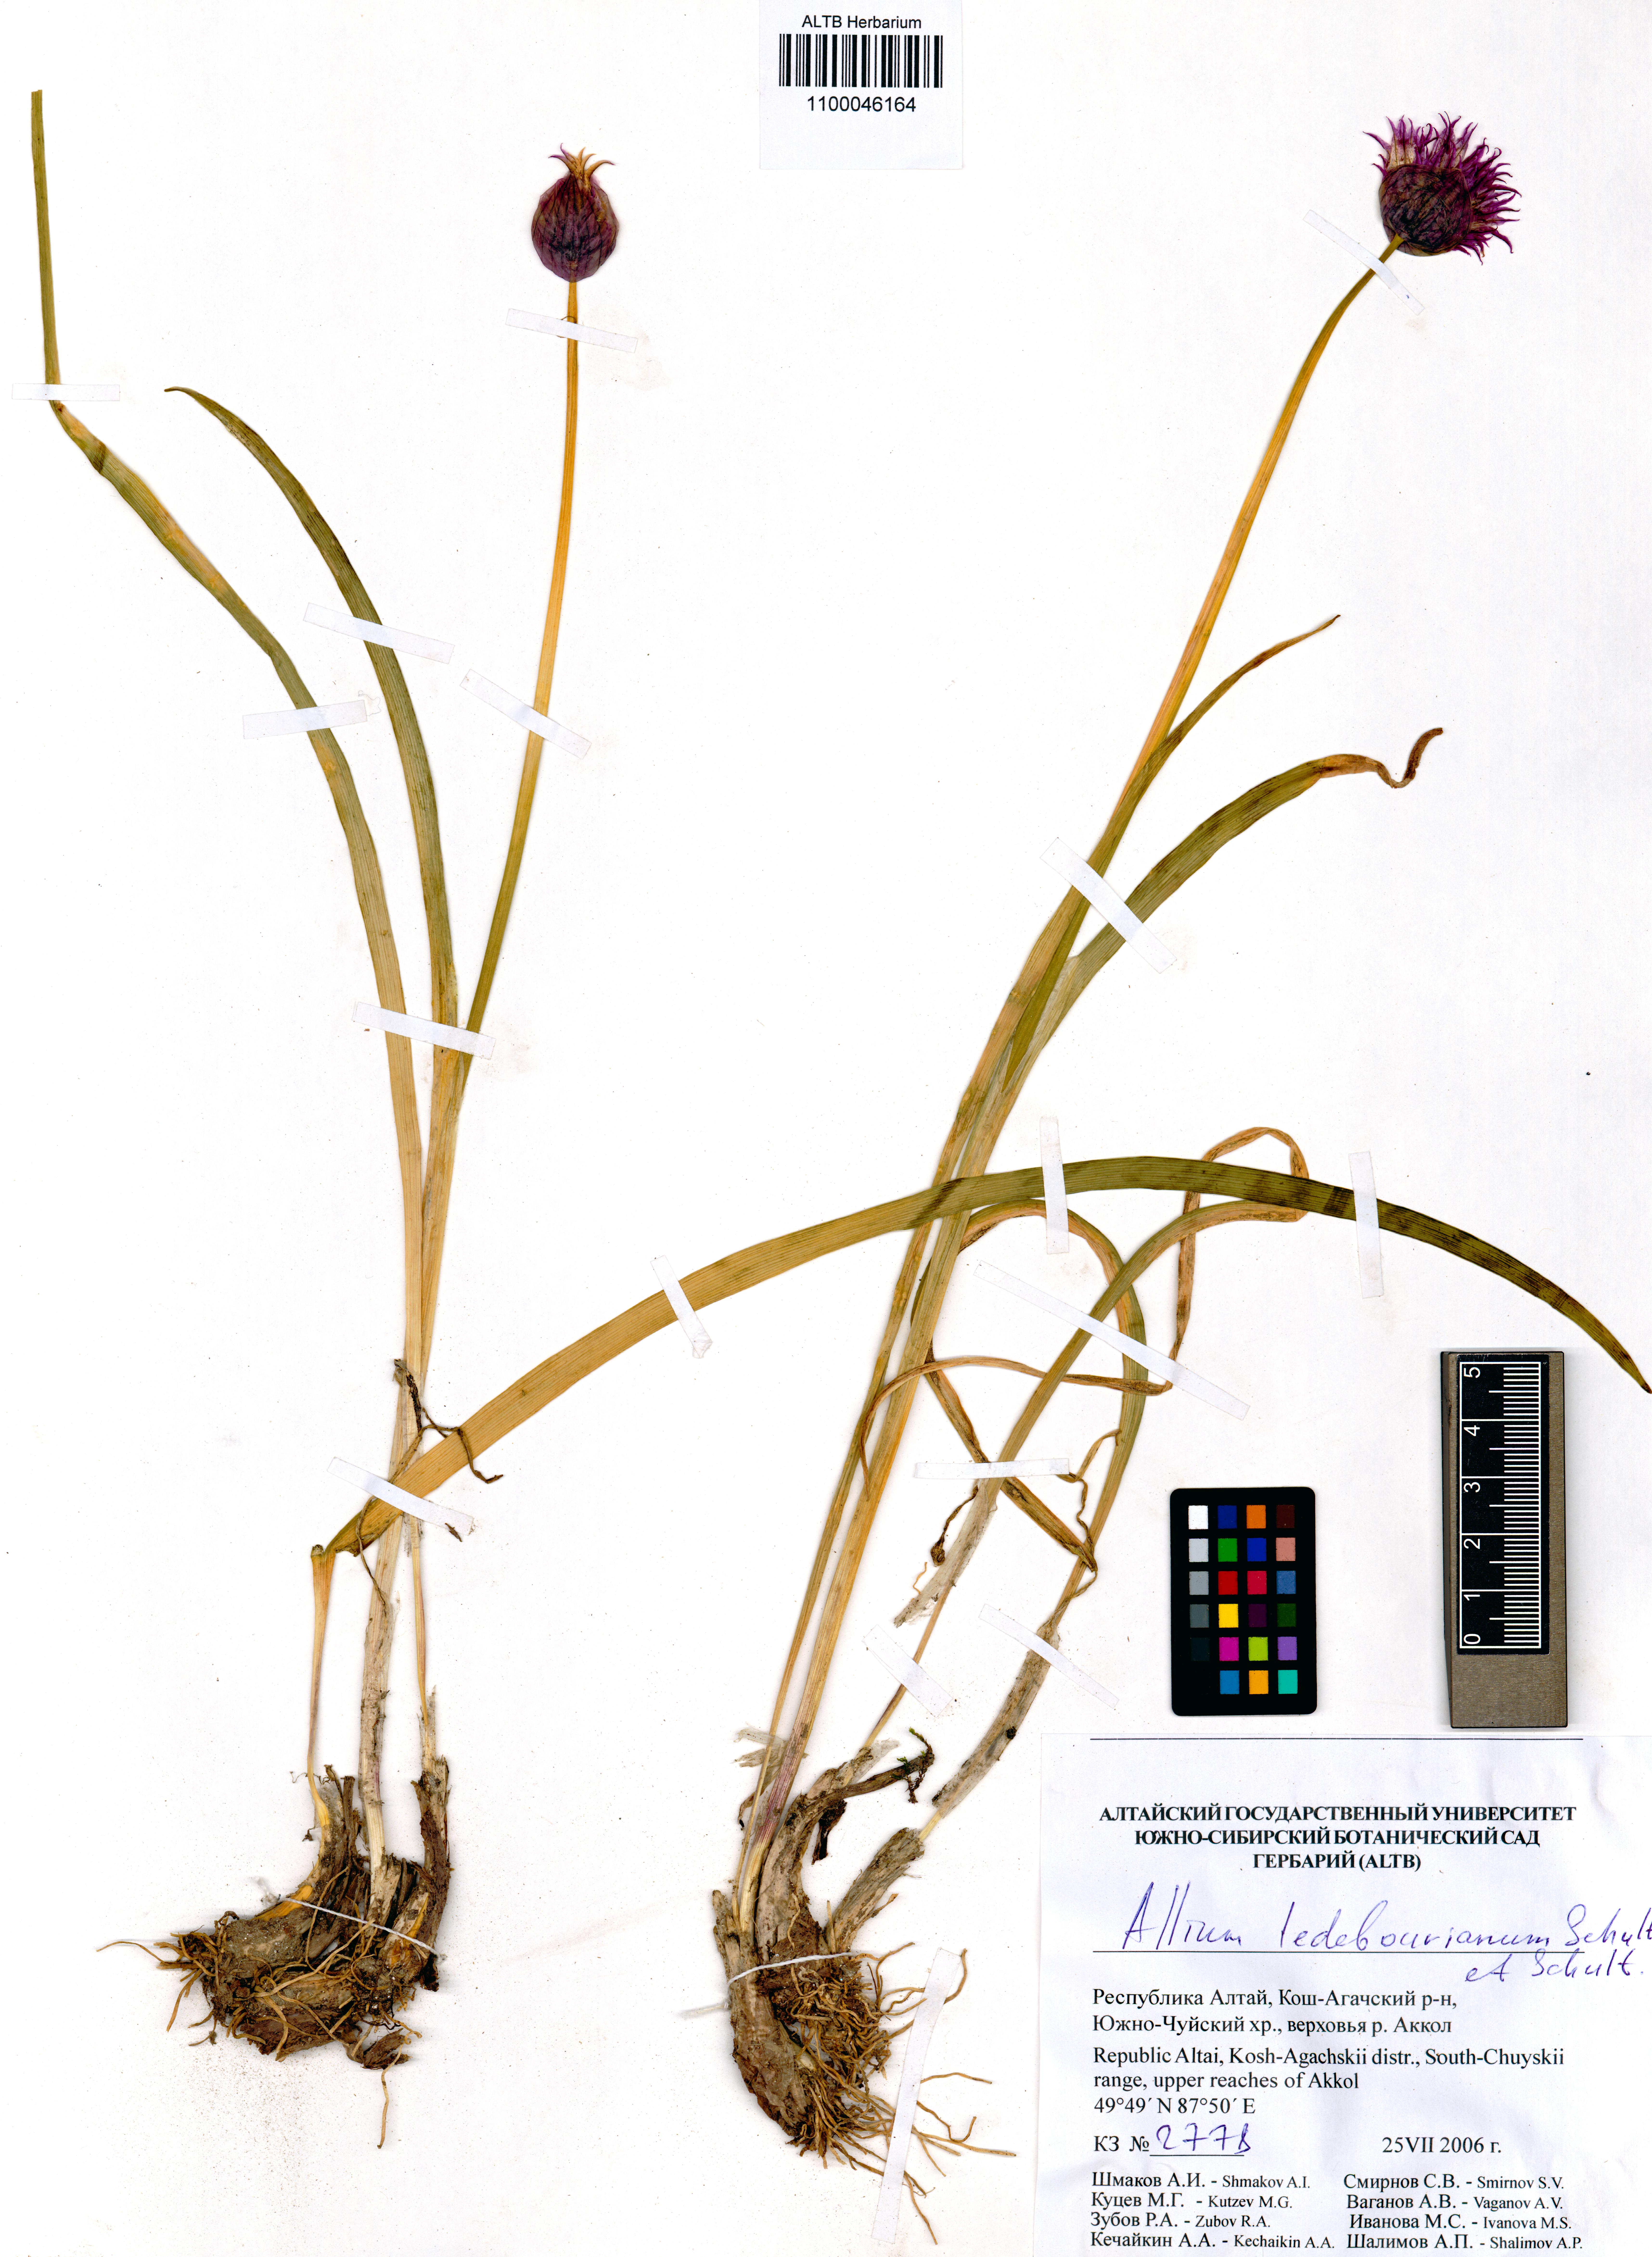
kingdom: Plantae
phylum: Tracheophyta
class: Liliopsida
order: Asparagales
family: Amaryllidaceae
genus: Allium
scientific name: Allium ledebourianum
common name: Ledebour chive
